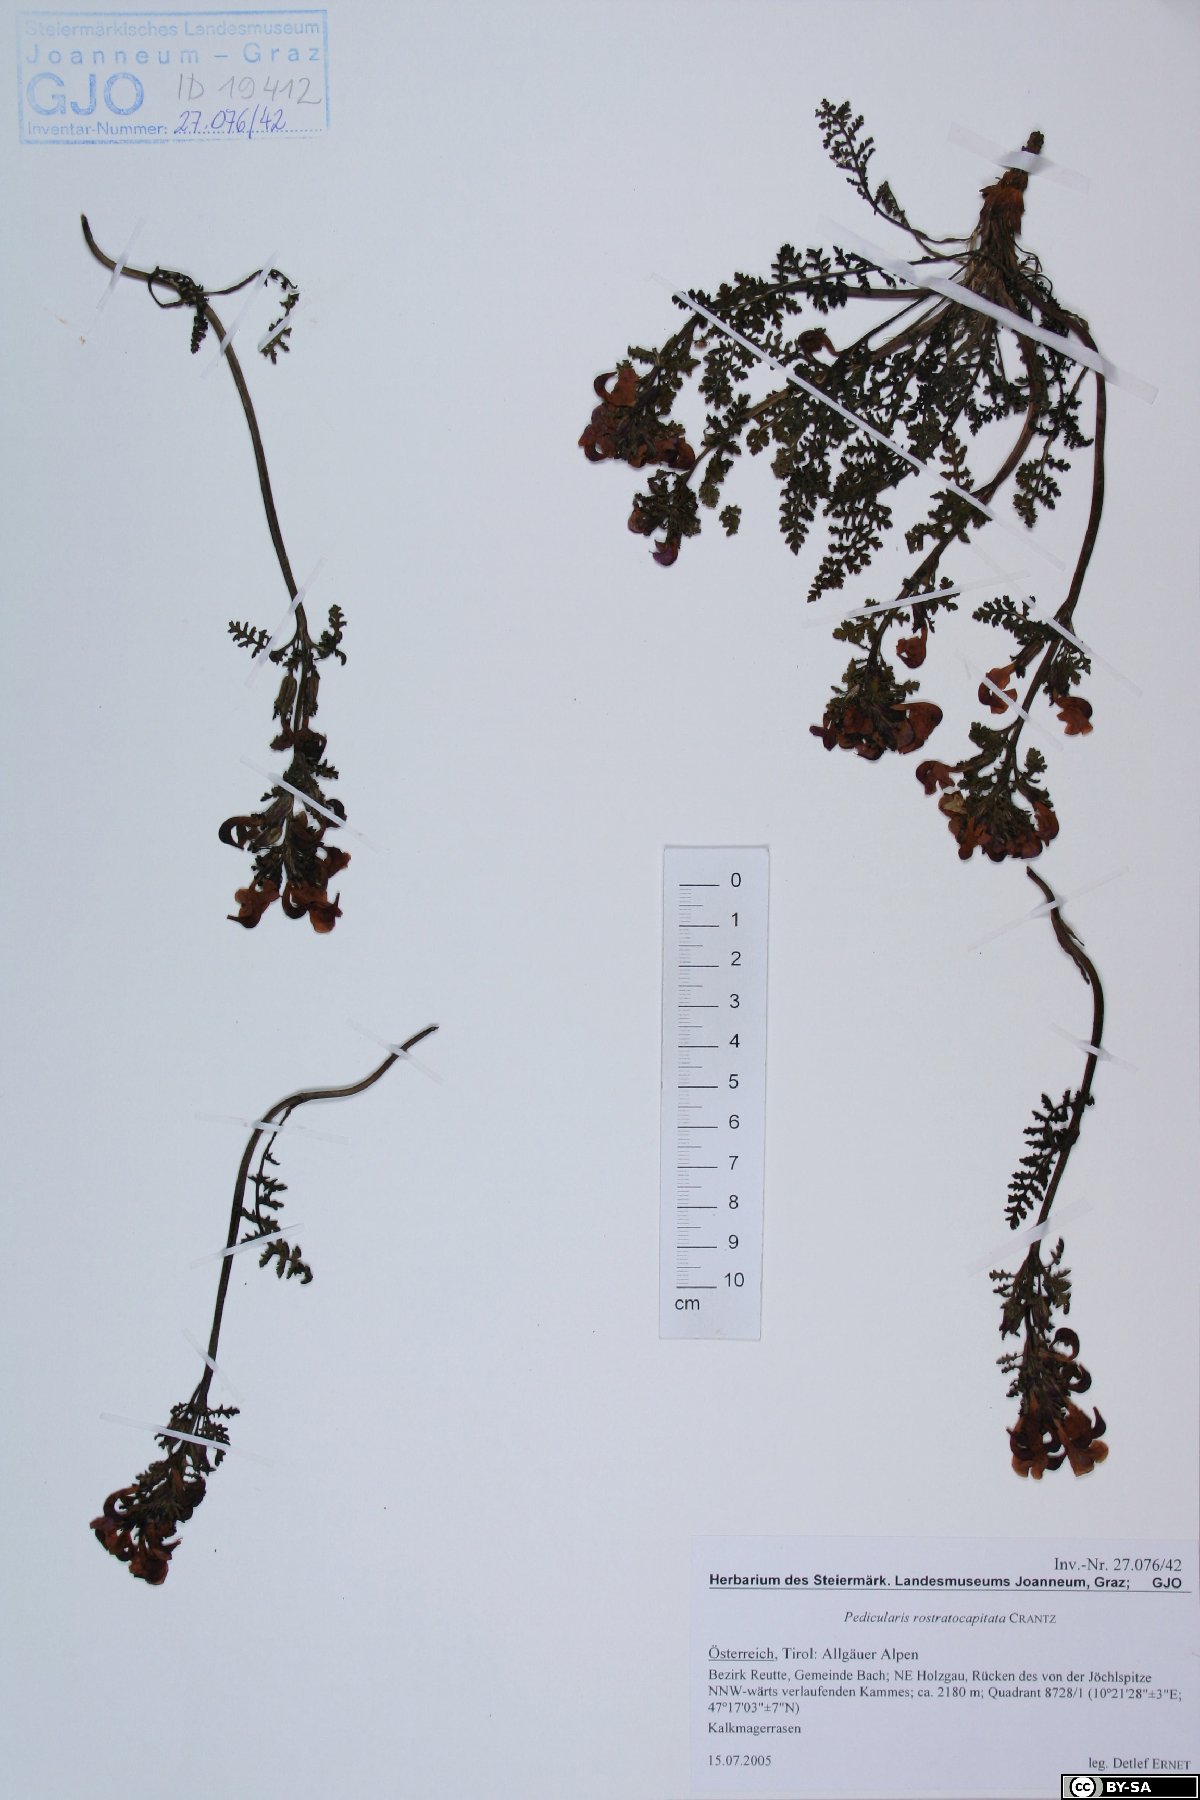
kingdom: Plantae
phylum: Tracheophyta
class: Magnoliopsida
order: Lamiales
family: Orobanchaceae
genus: Pedicularis
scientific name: Pedicularis rostratocapitata
